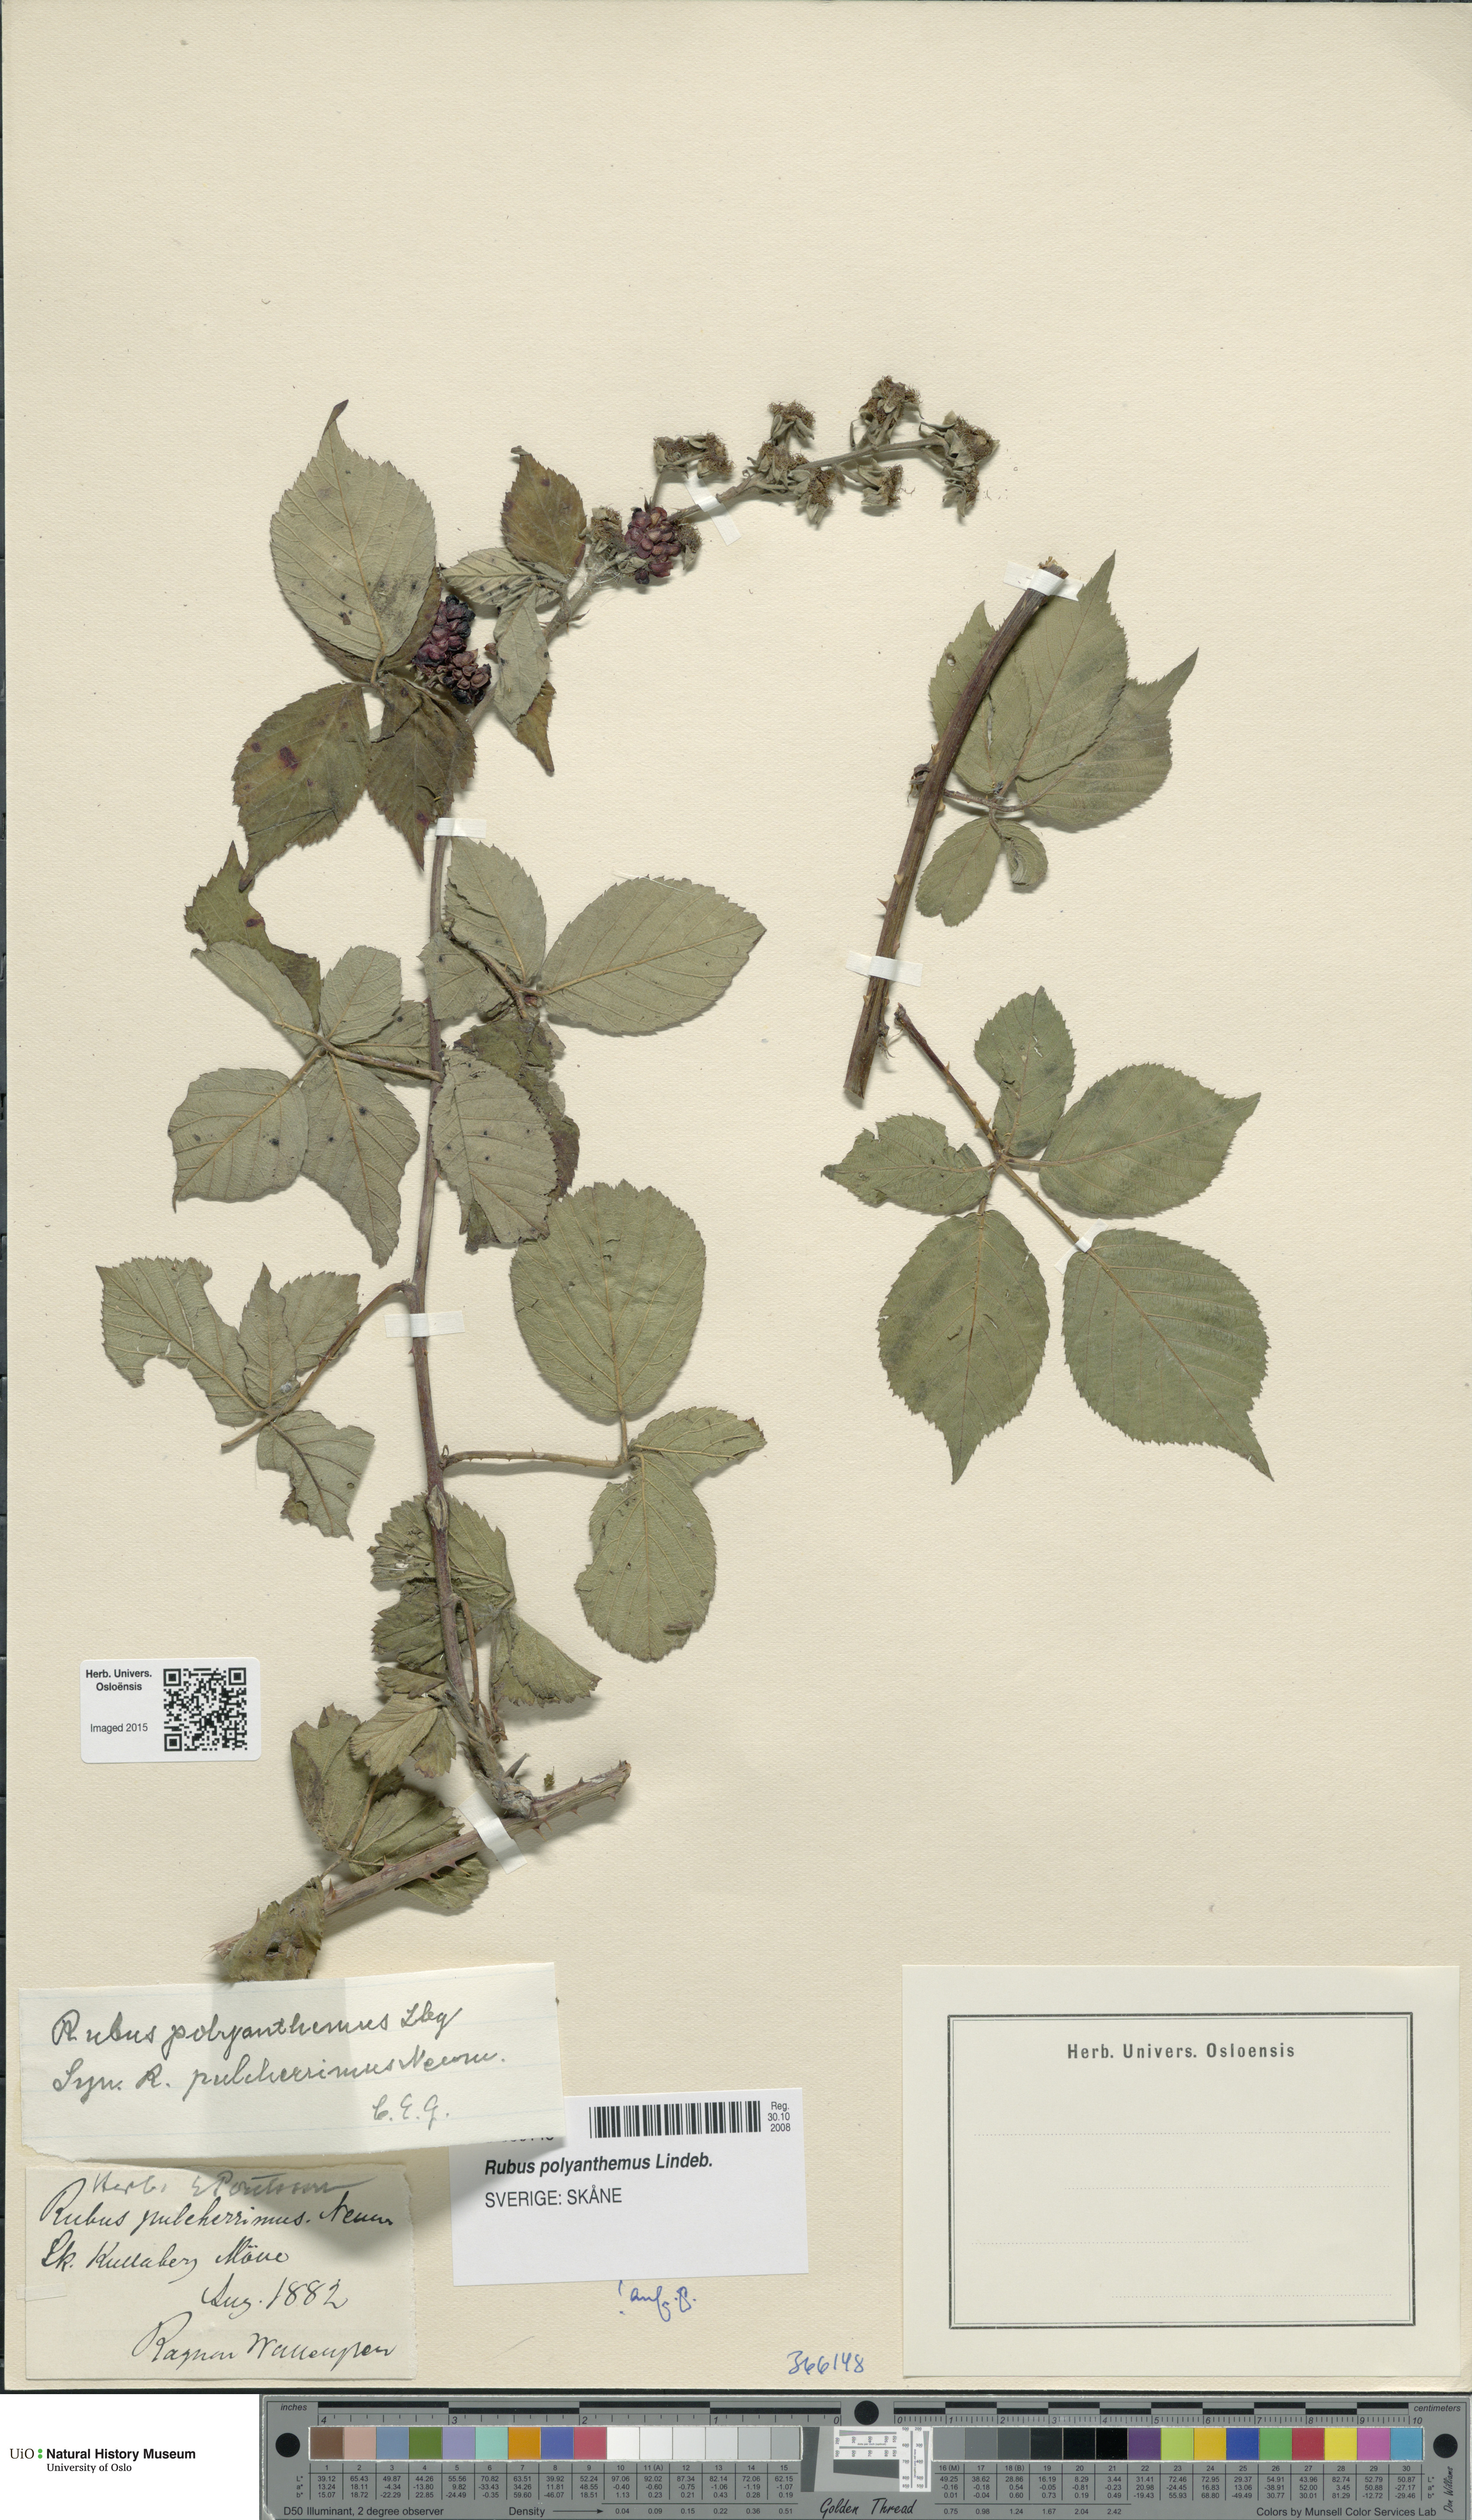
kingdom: Plantae
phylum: Tracheophyta
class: Magnoliopsida
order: Rosales
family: Rosaceae
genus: Rubus
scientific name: Rubus polyanthemus
